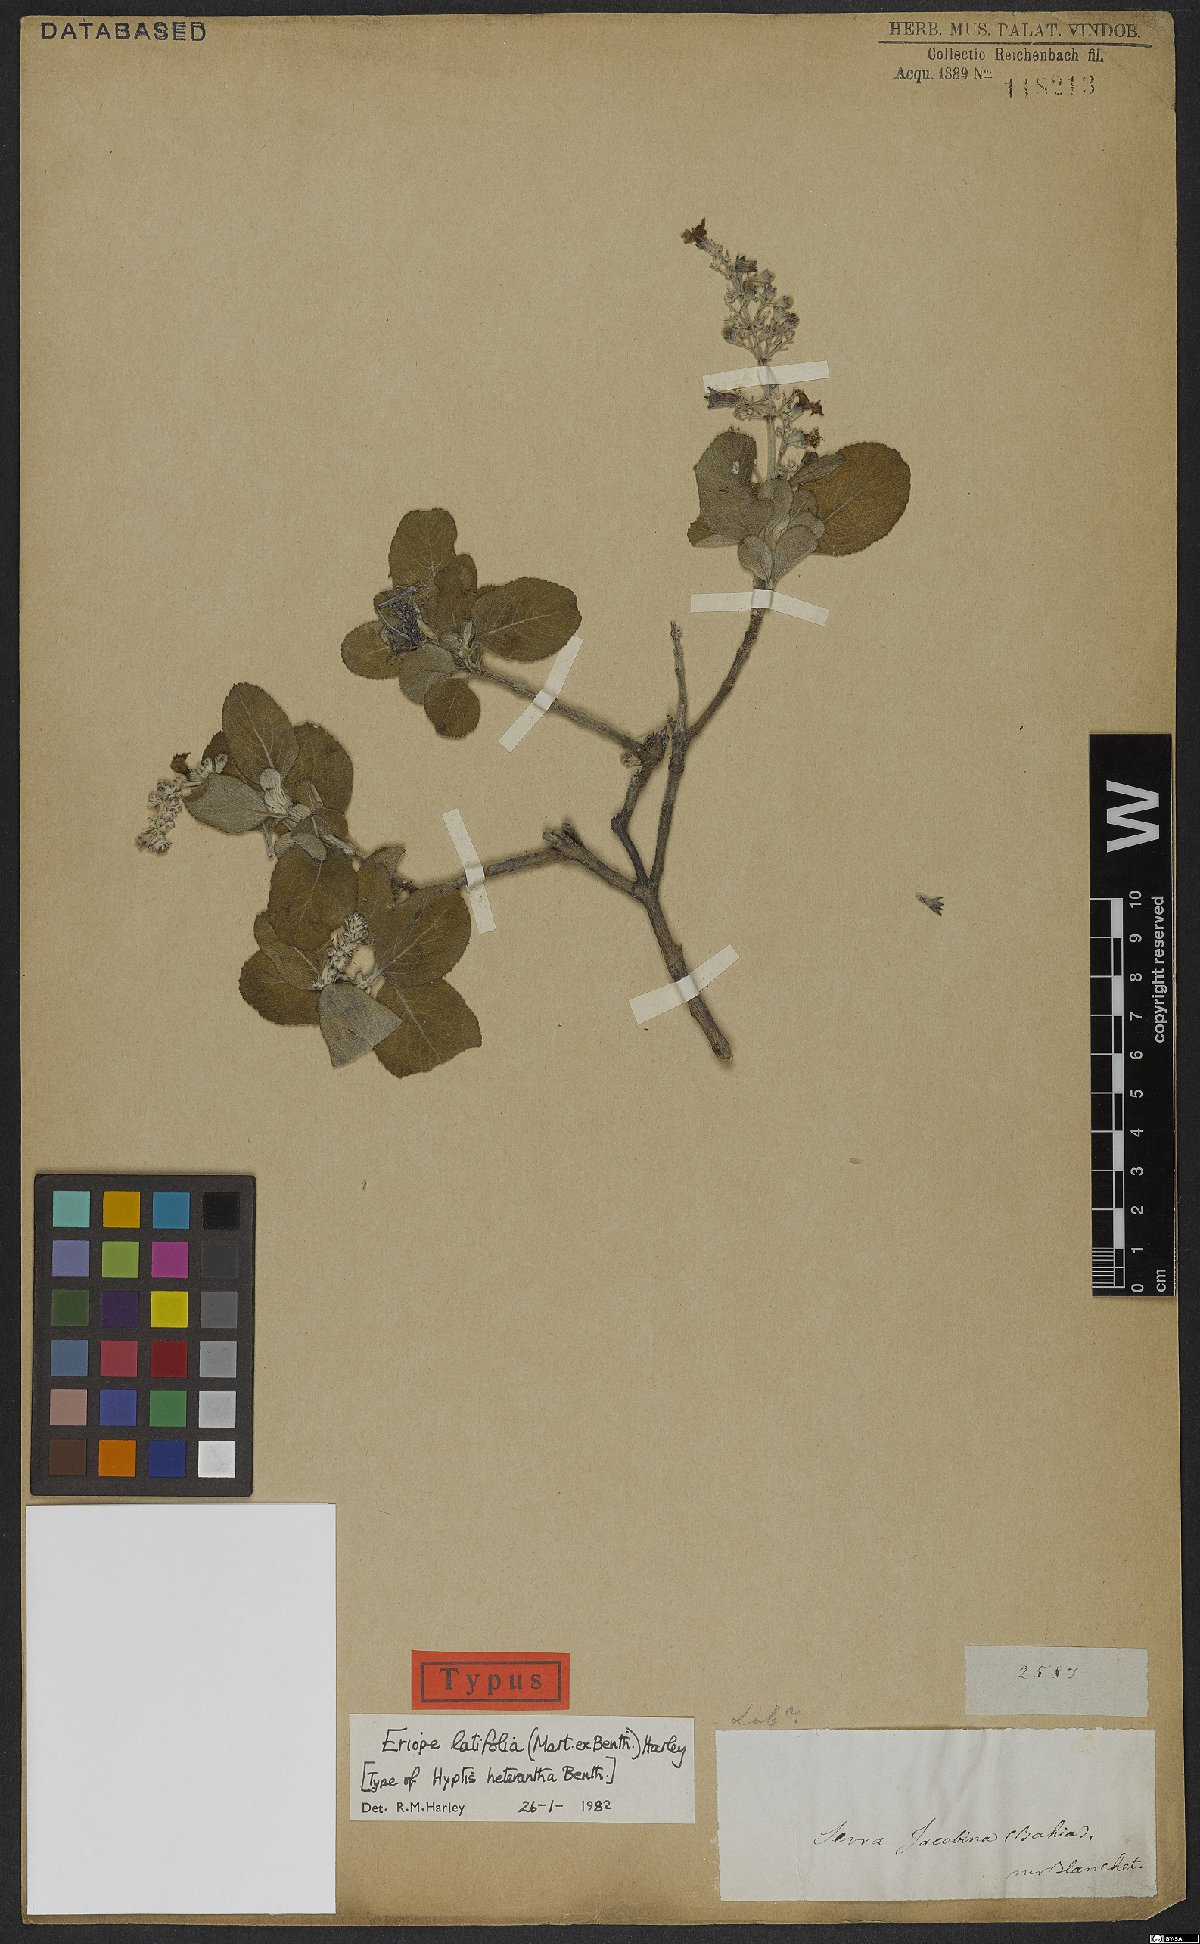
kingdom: Plantae
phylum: Tracheophyta
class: Magnoliopsida
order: Lamiales
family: Lamiaceae
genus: Eriope
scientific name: Eriope latifolia
